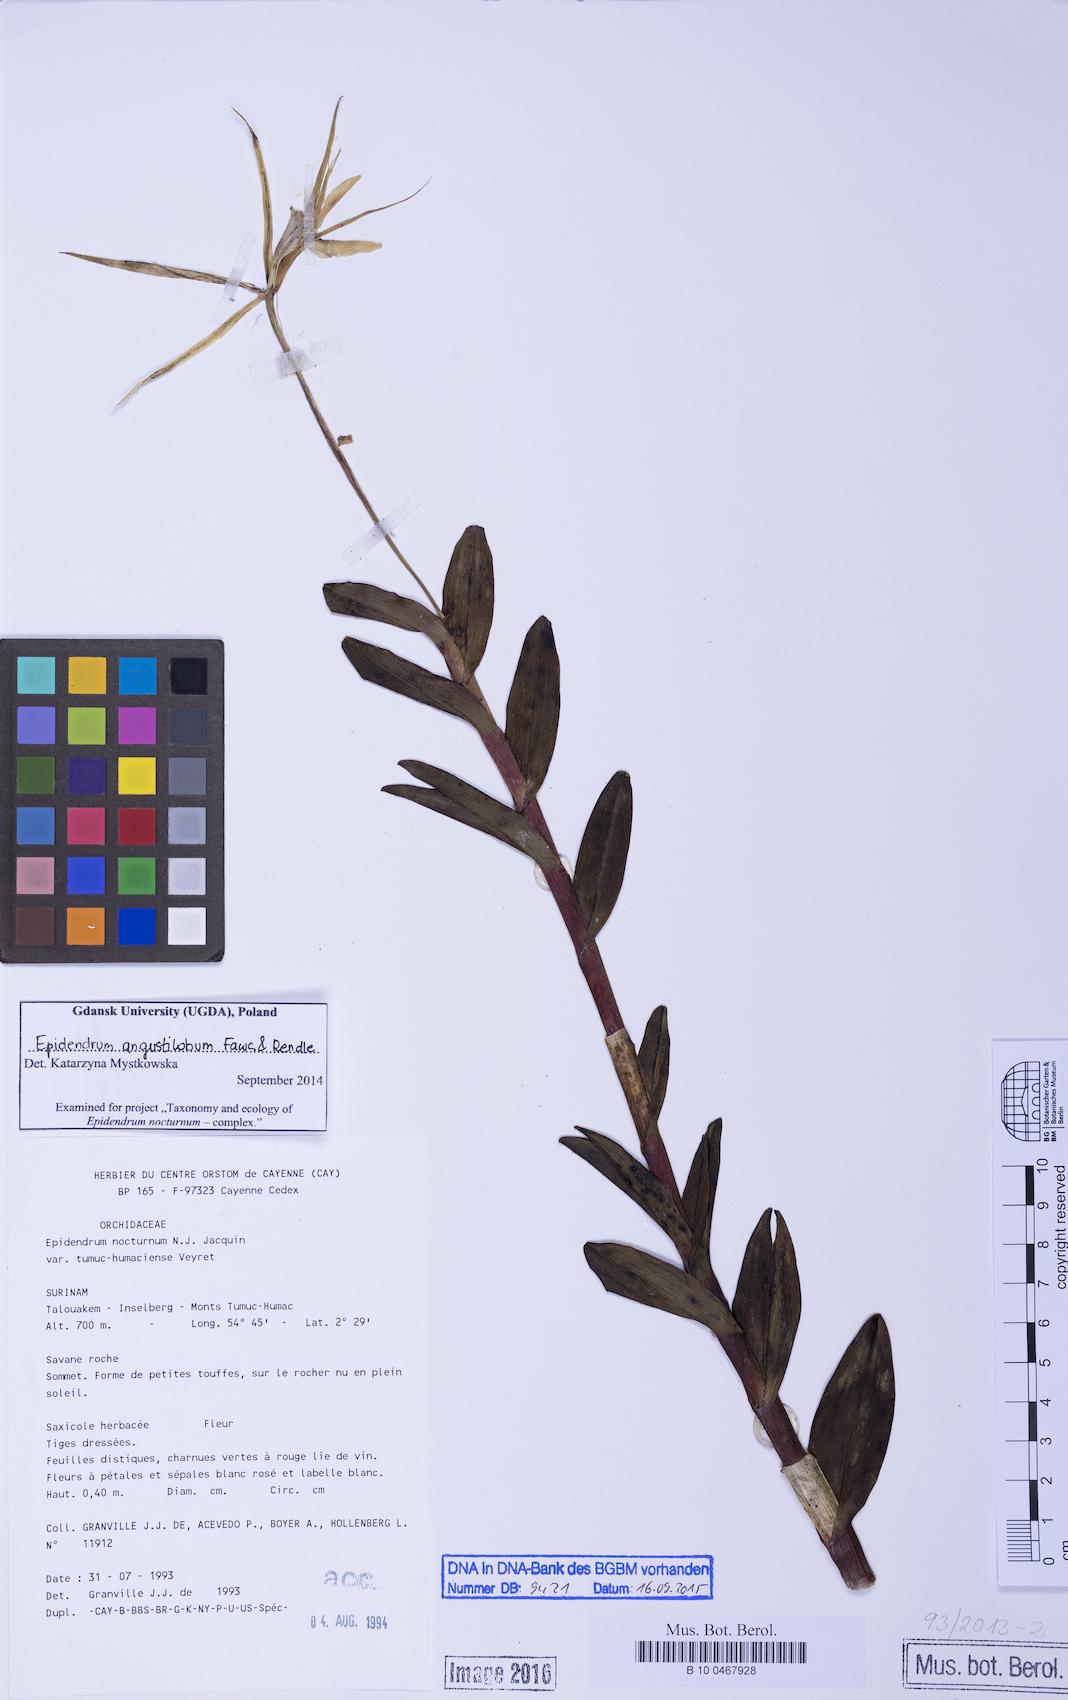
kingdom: Plantae
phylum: Tracheophyta
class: Liliopsida
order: Asparagales
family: Orchidaceae
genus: Epidendrum
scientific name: Epidendrum angustilobum
